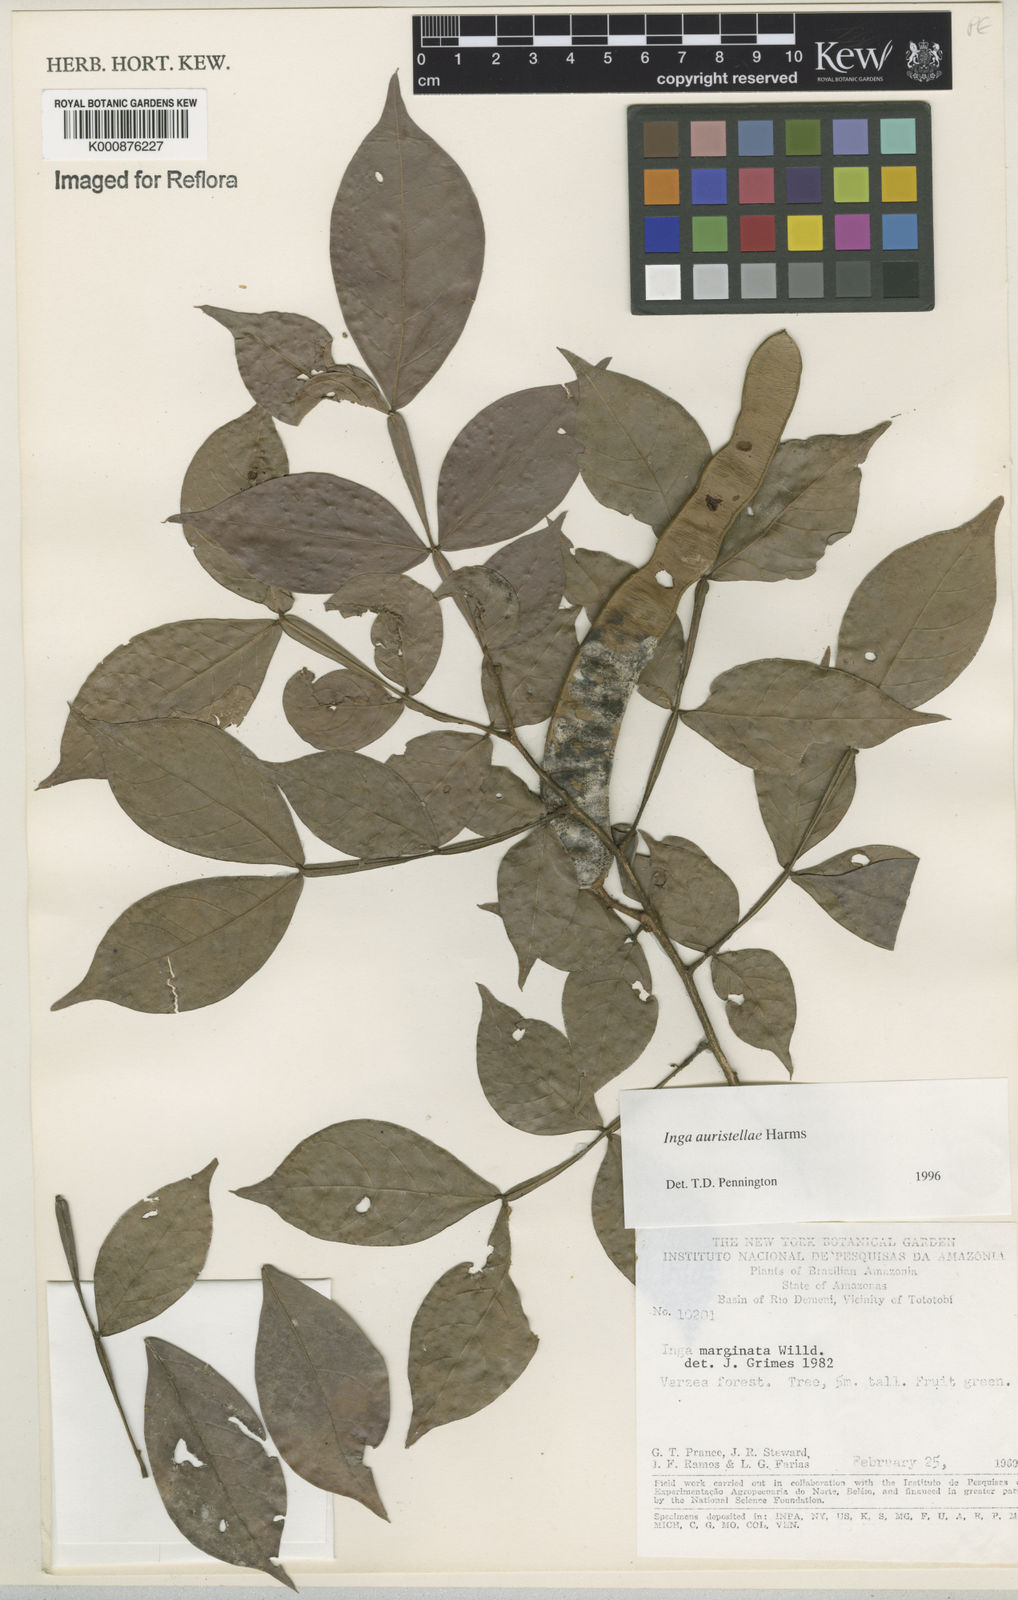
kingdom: Plantae
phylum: Tracheophyta
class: Magnoliopsida
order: Fabales
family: Fabaceae
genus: Inga
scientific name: Inga auristellae
